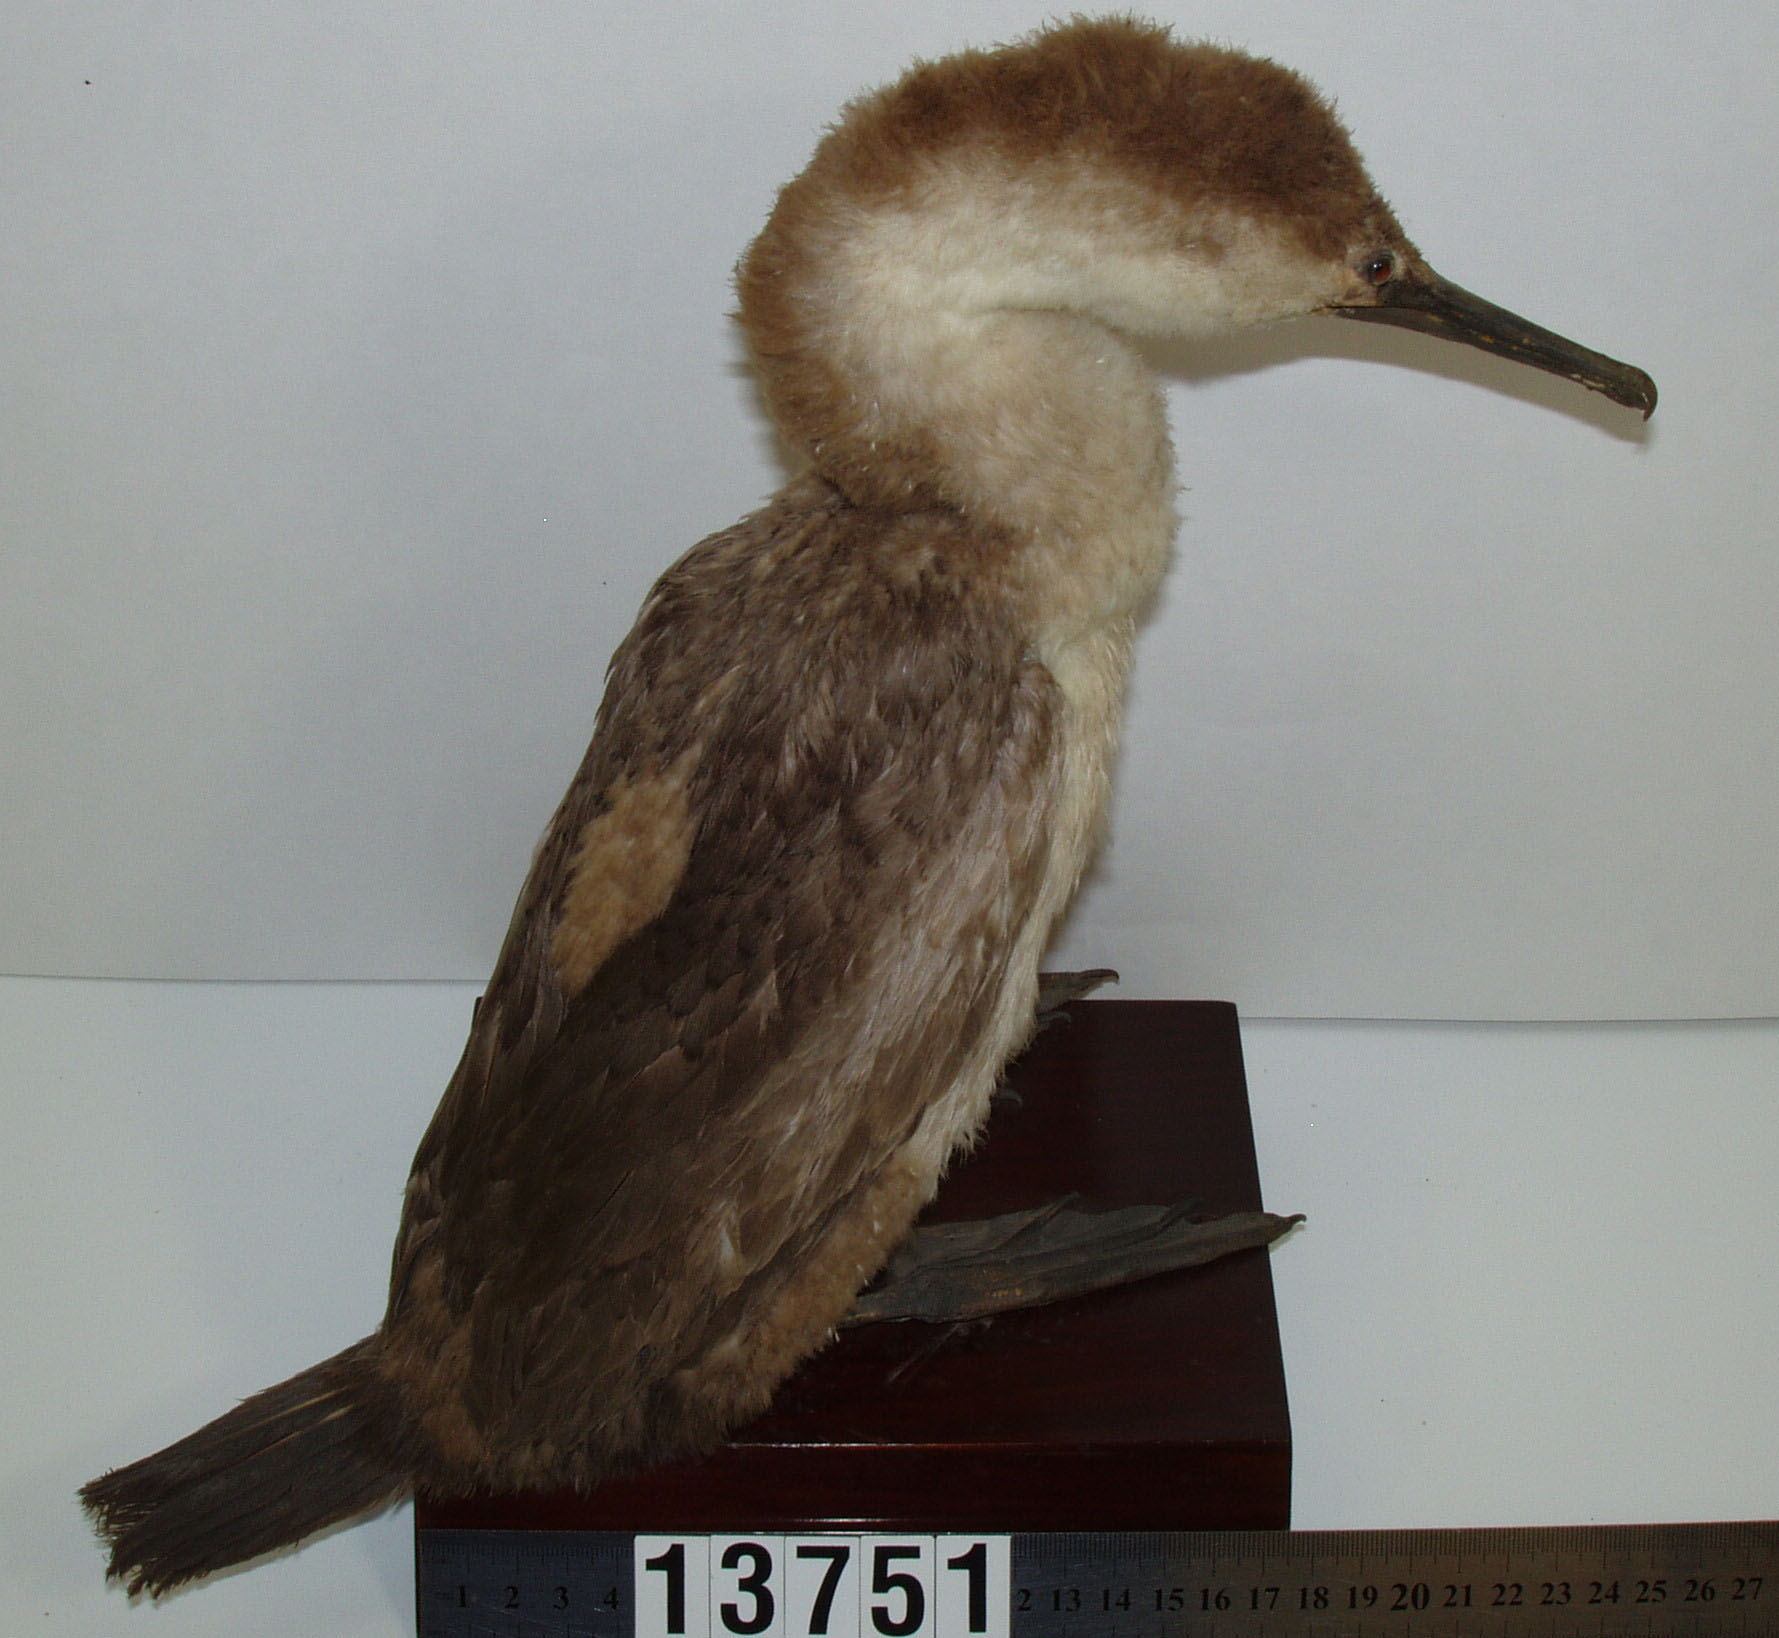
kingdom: Animalia
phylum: Chordata
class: Aves
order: Suliformes
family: Phalacrocoracidae
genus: Phalacrocorax
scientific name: Phalacrocorax punctatus
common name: Spotted shag
